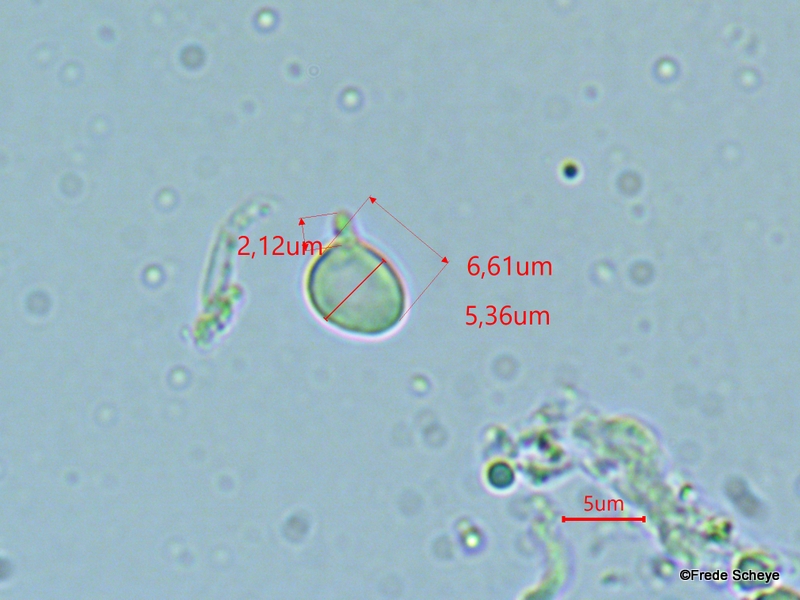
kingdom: Fungi
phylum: Basidiomycota
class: Agaricomycetes
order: Agaricales
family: Clavariaceae
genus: Clavulinopsis
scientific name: Clavulinopsis laeticolor
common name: flamme-køllesvamp
